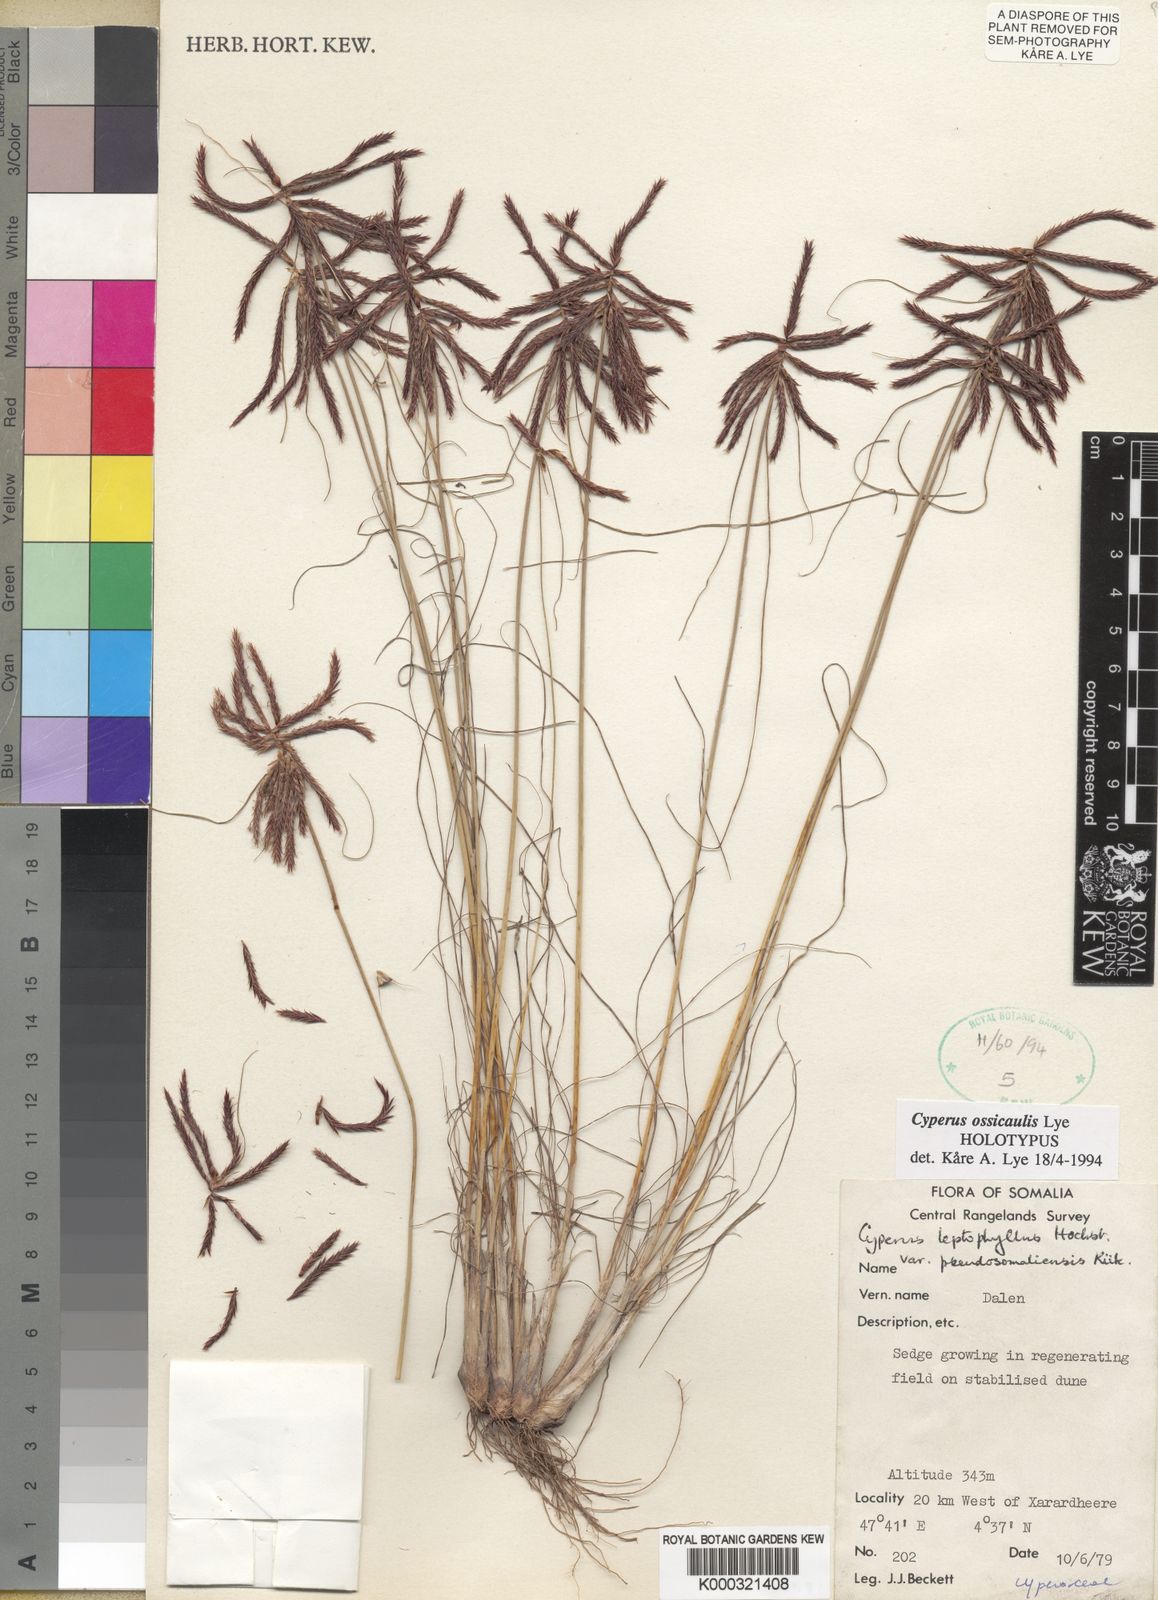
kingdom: Plantae
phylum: Tracheophyta
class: Liliopsida
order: Poales
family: Cyperaceae
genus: Cyperus
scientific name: Cyperus ossicaulis
